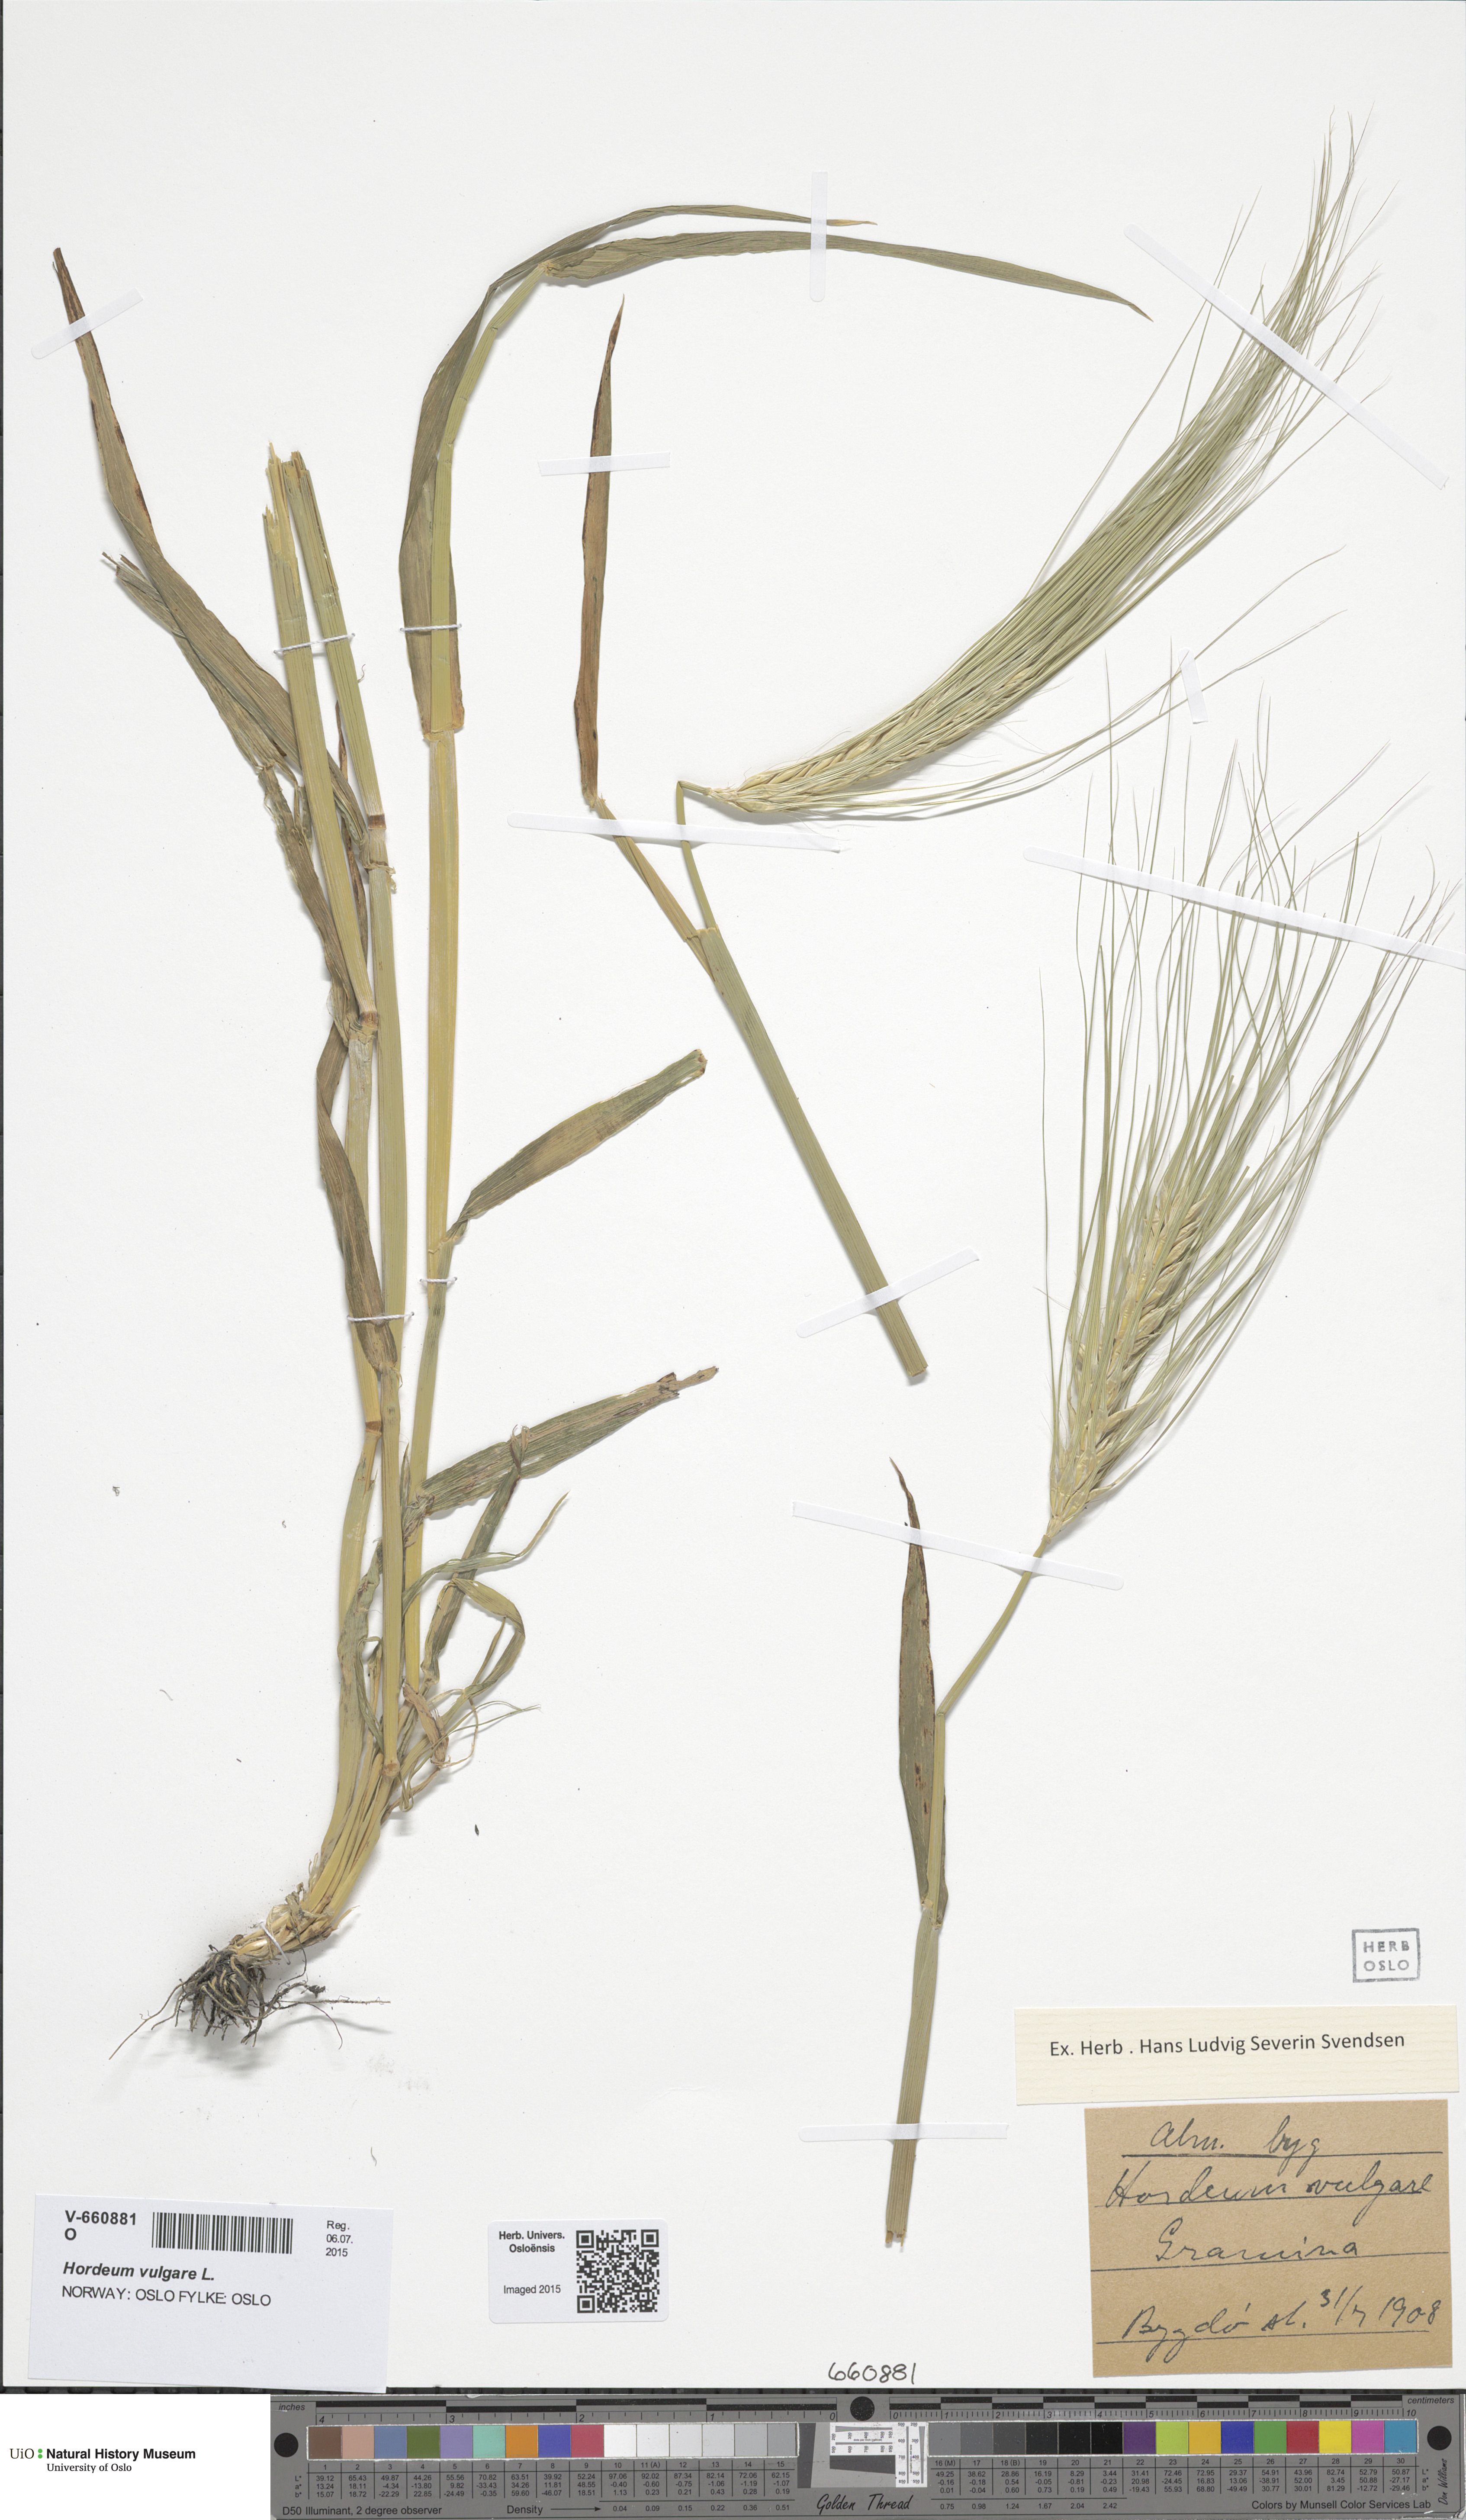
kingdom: Plantae
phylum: Tracheophyta
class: Liliopsida
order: Poales
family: Poaceae
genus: Hordeum
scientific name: Hordeum vulgare
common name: Common barley
